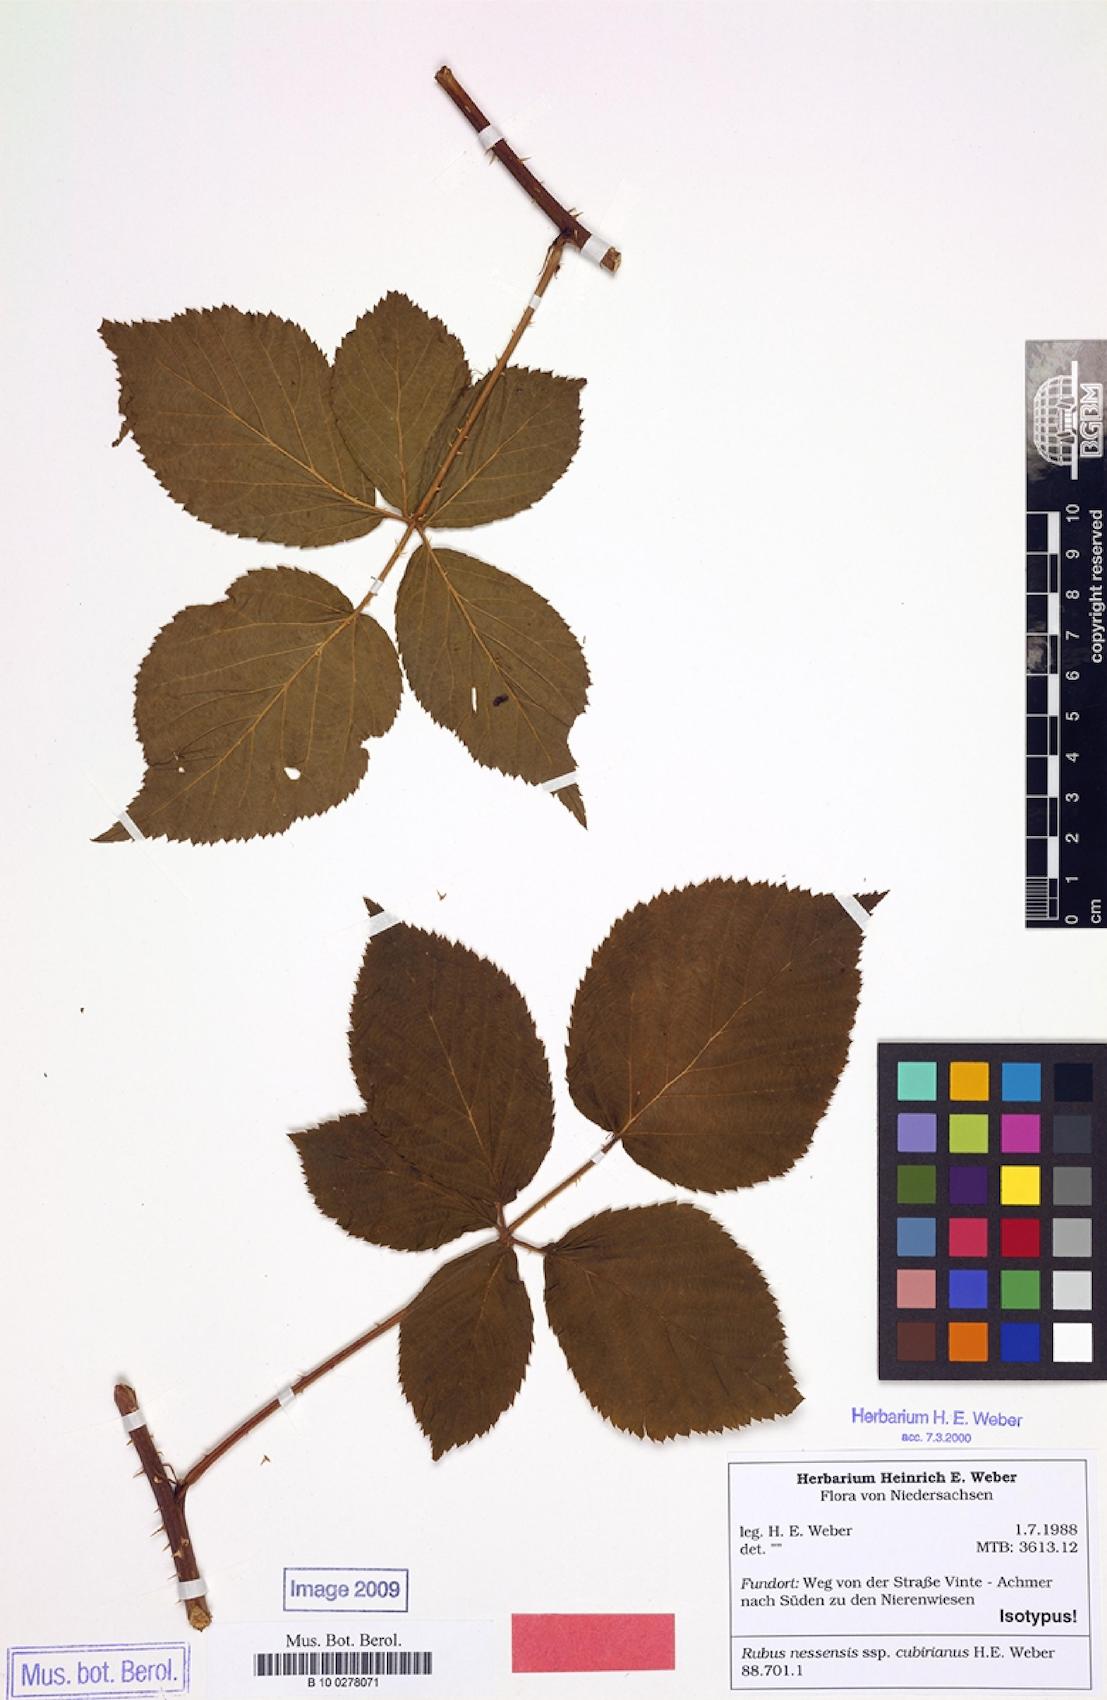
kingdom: Plantae
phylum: Tracheophyta
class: Magnoliopsida
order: Rosales
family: Rosaceae
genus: Rubus
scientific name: Rubus cubirianus
